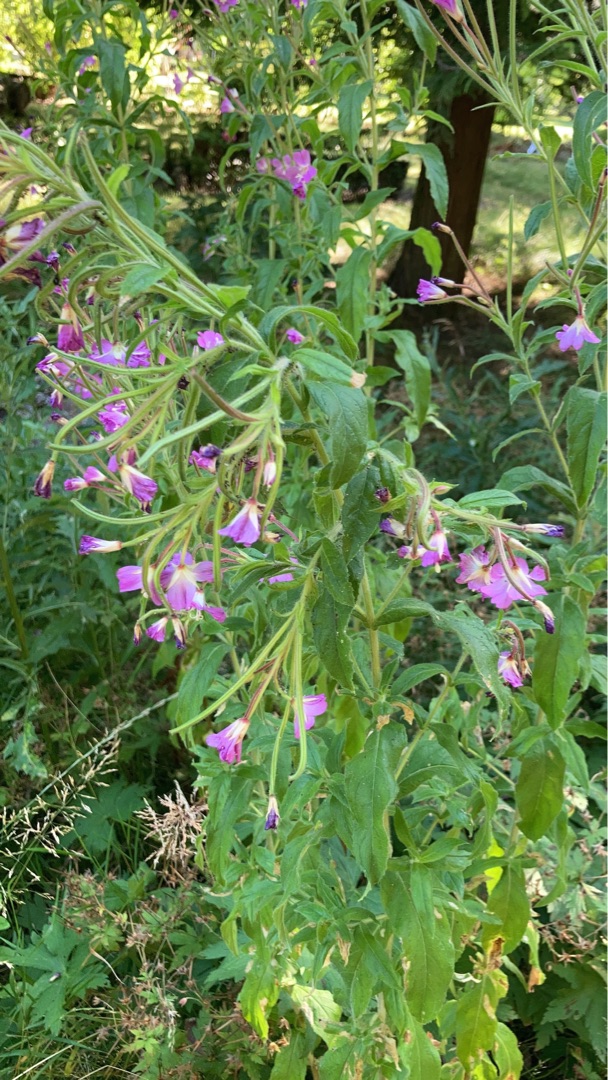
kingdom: Plantae
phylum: Tracheophyta
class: Magnoliopsida
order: Myrtales
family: Onagraceae
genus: Epilobium
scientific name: Epilobium hirsutum
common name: Lådden dueurt
